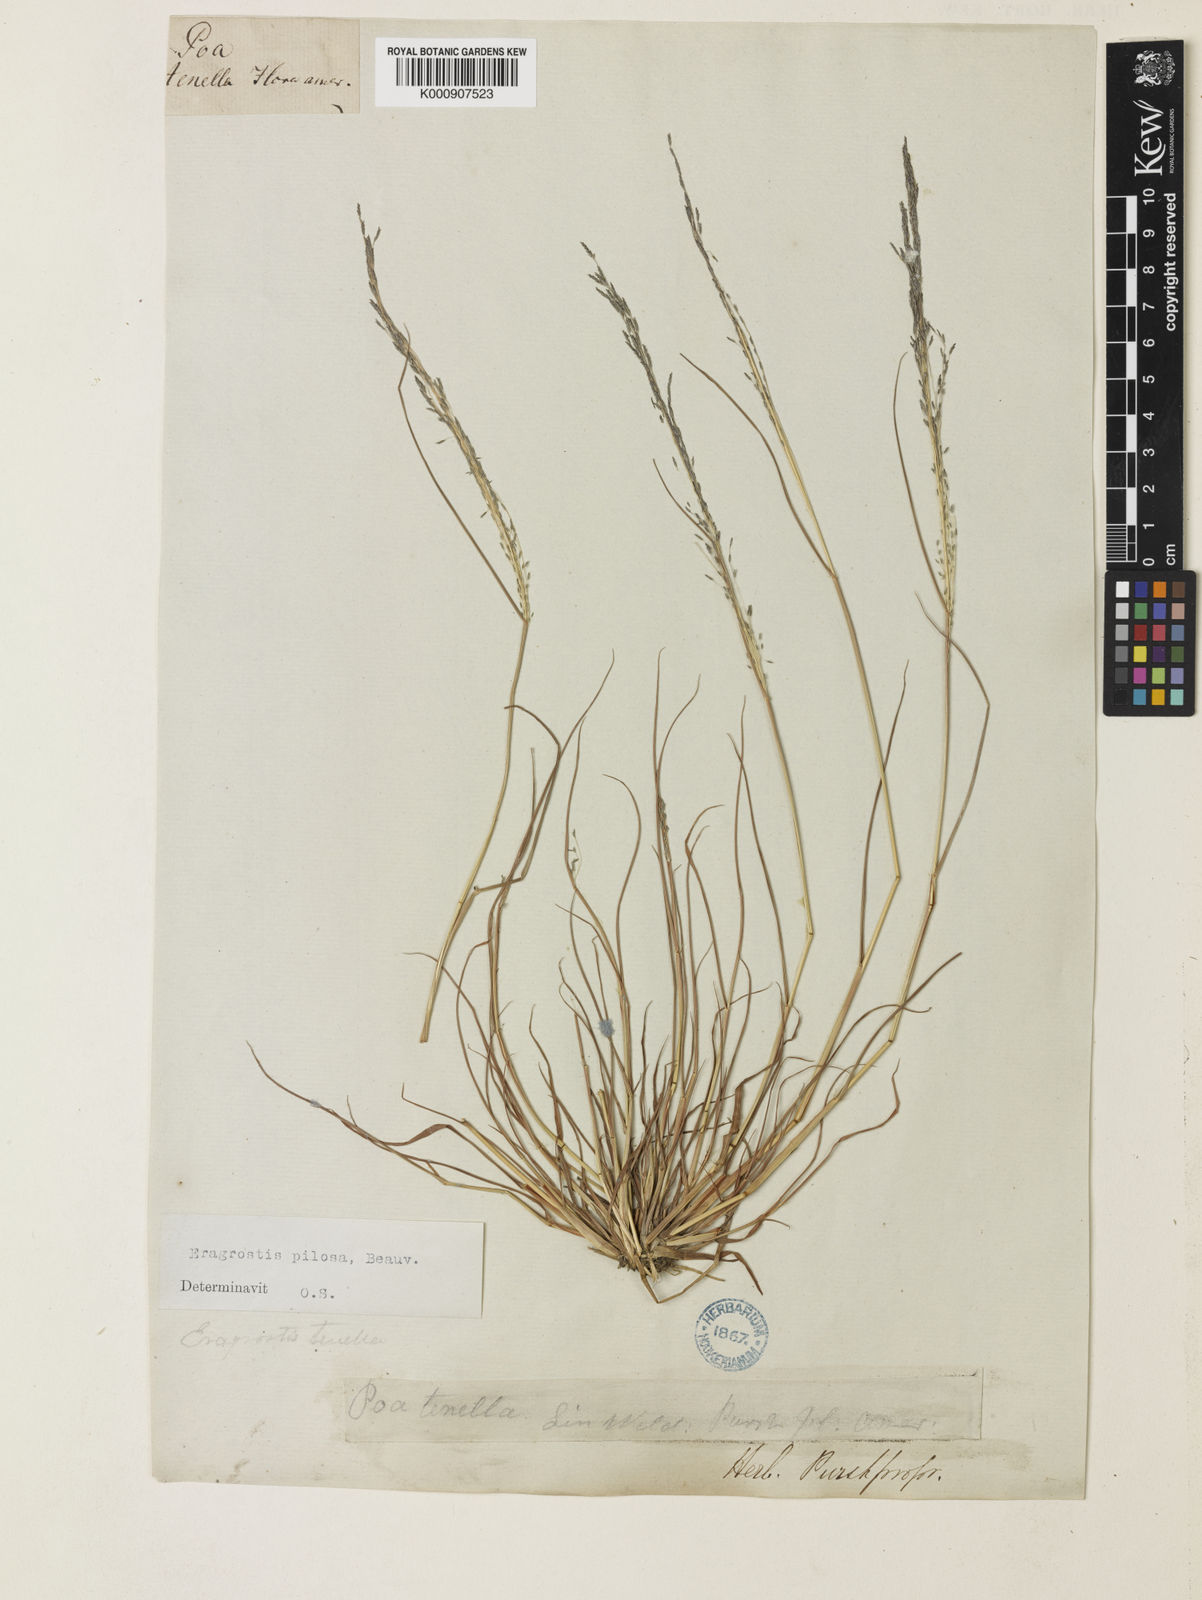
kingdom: Plantae
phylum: Tracheophyta
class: Liliopsida
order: Poales
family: Poaceae
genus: Eragrostis
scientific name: Eragrostis pilosa
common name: Indian lovegrass
